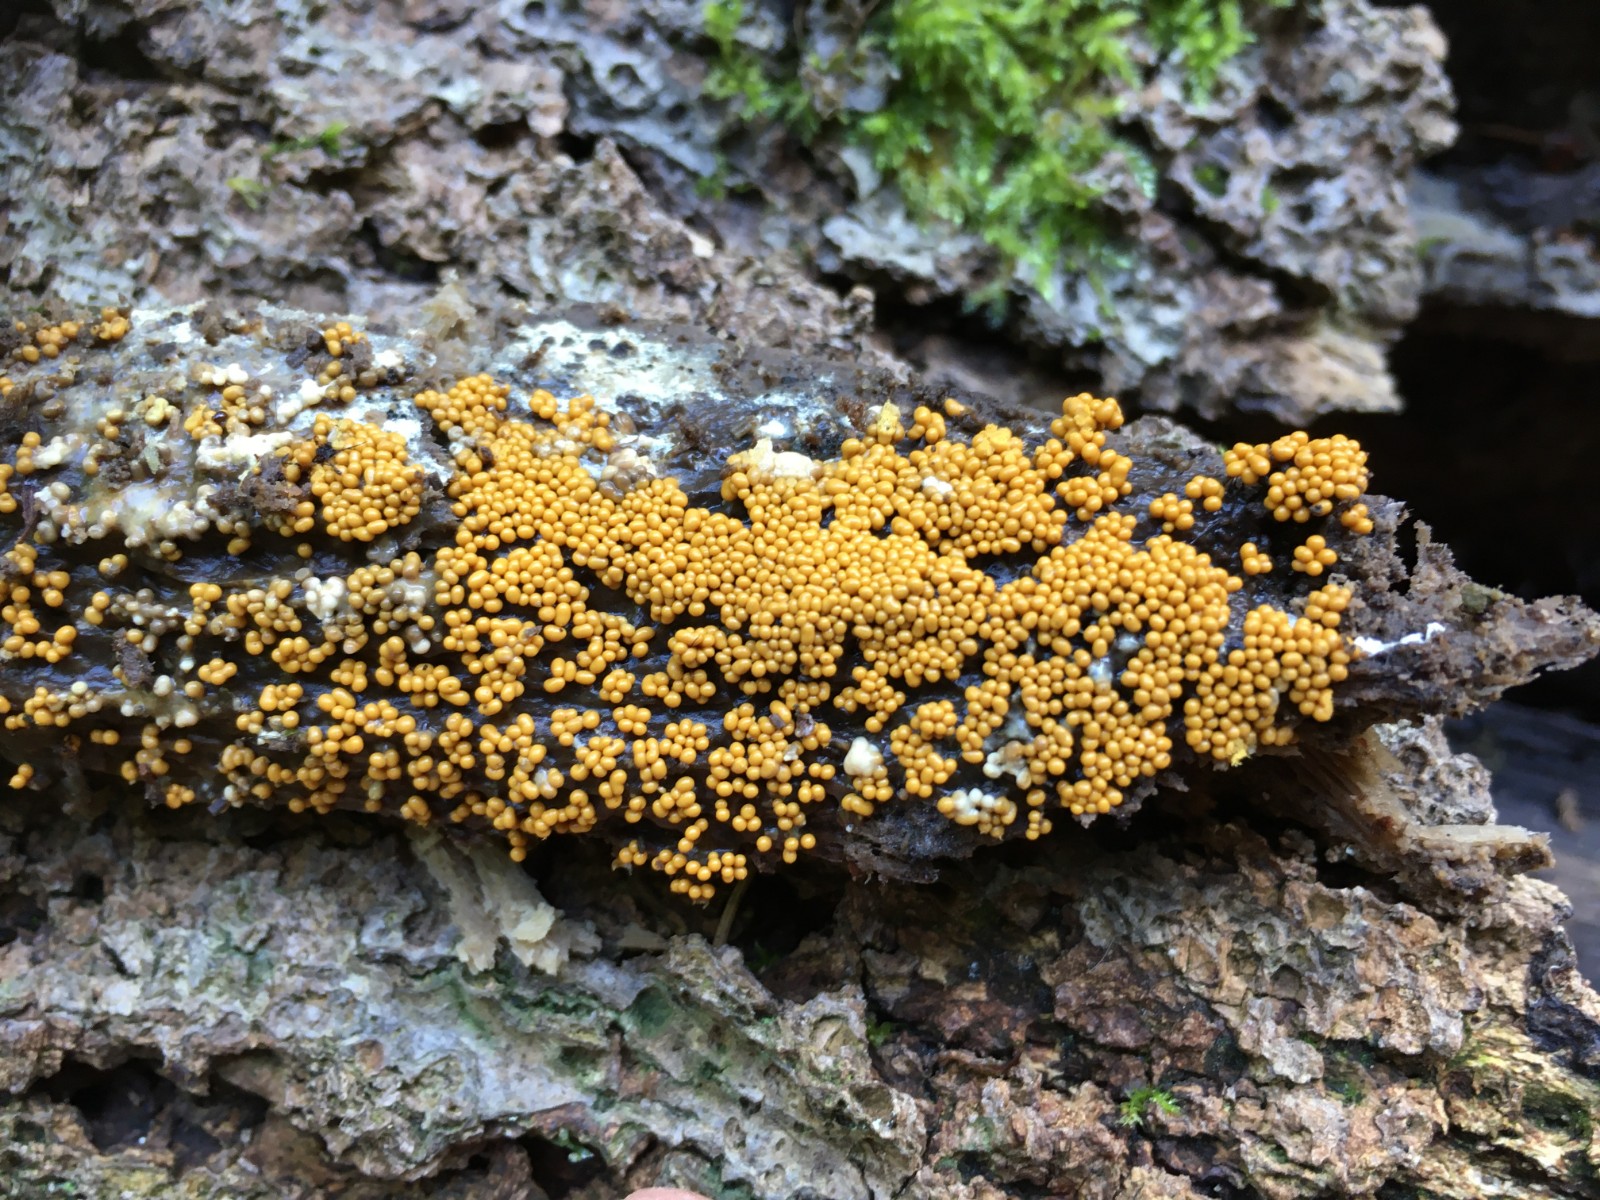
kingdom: Protozoa
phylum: Mycetozoa
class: Myxomycetes
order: Trichiales
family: Trichiaceae
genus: Trichia
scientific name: Trichia varia
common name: foranderlig hårbold
